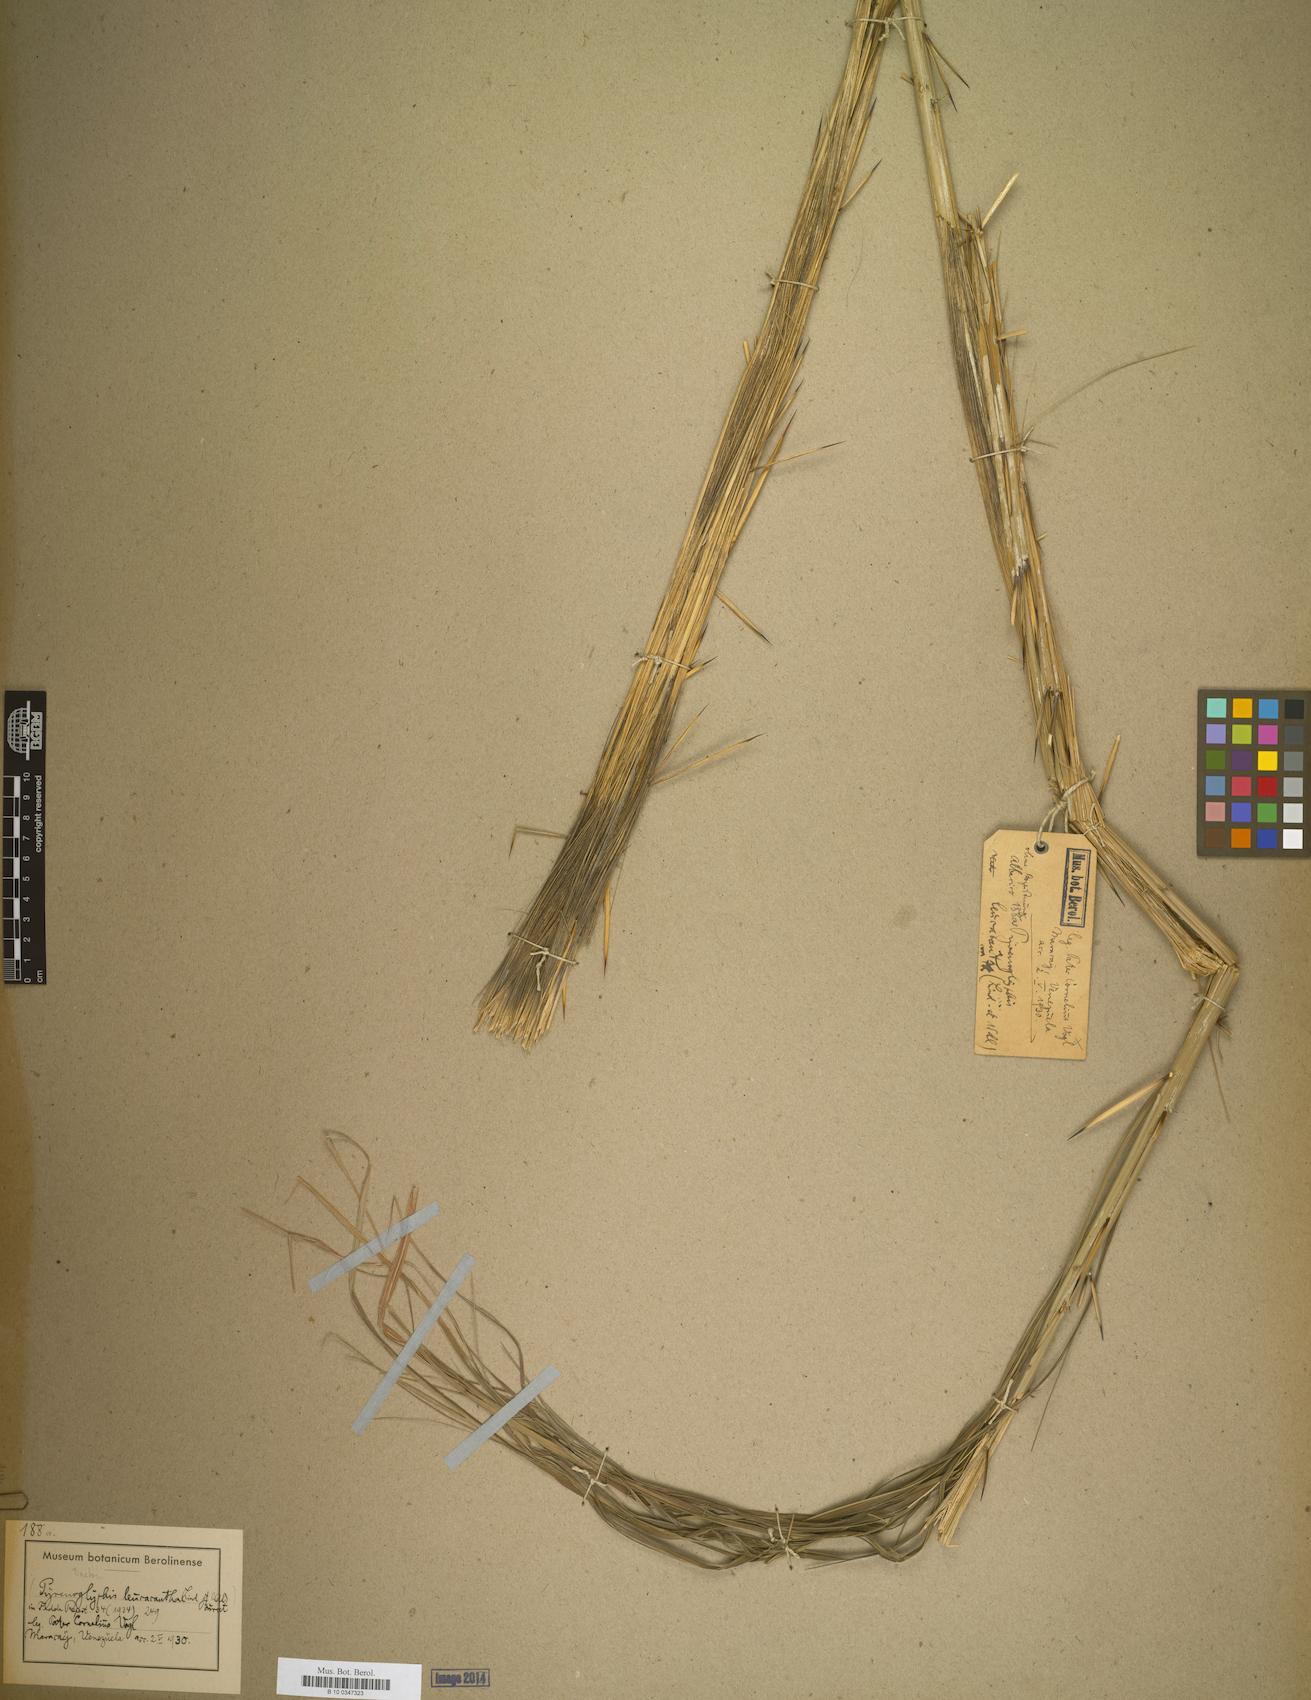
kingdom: Plantae
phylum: Tracheophyta
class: Liliopsida
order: Arecales
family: Arecaceae
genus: Bactris
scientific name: Bactris maraja
